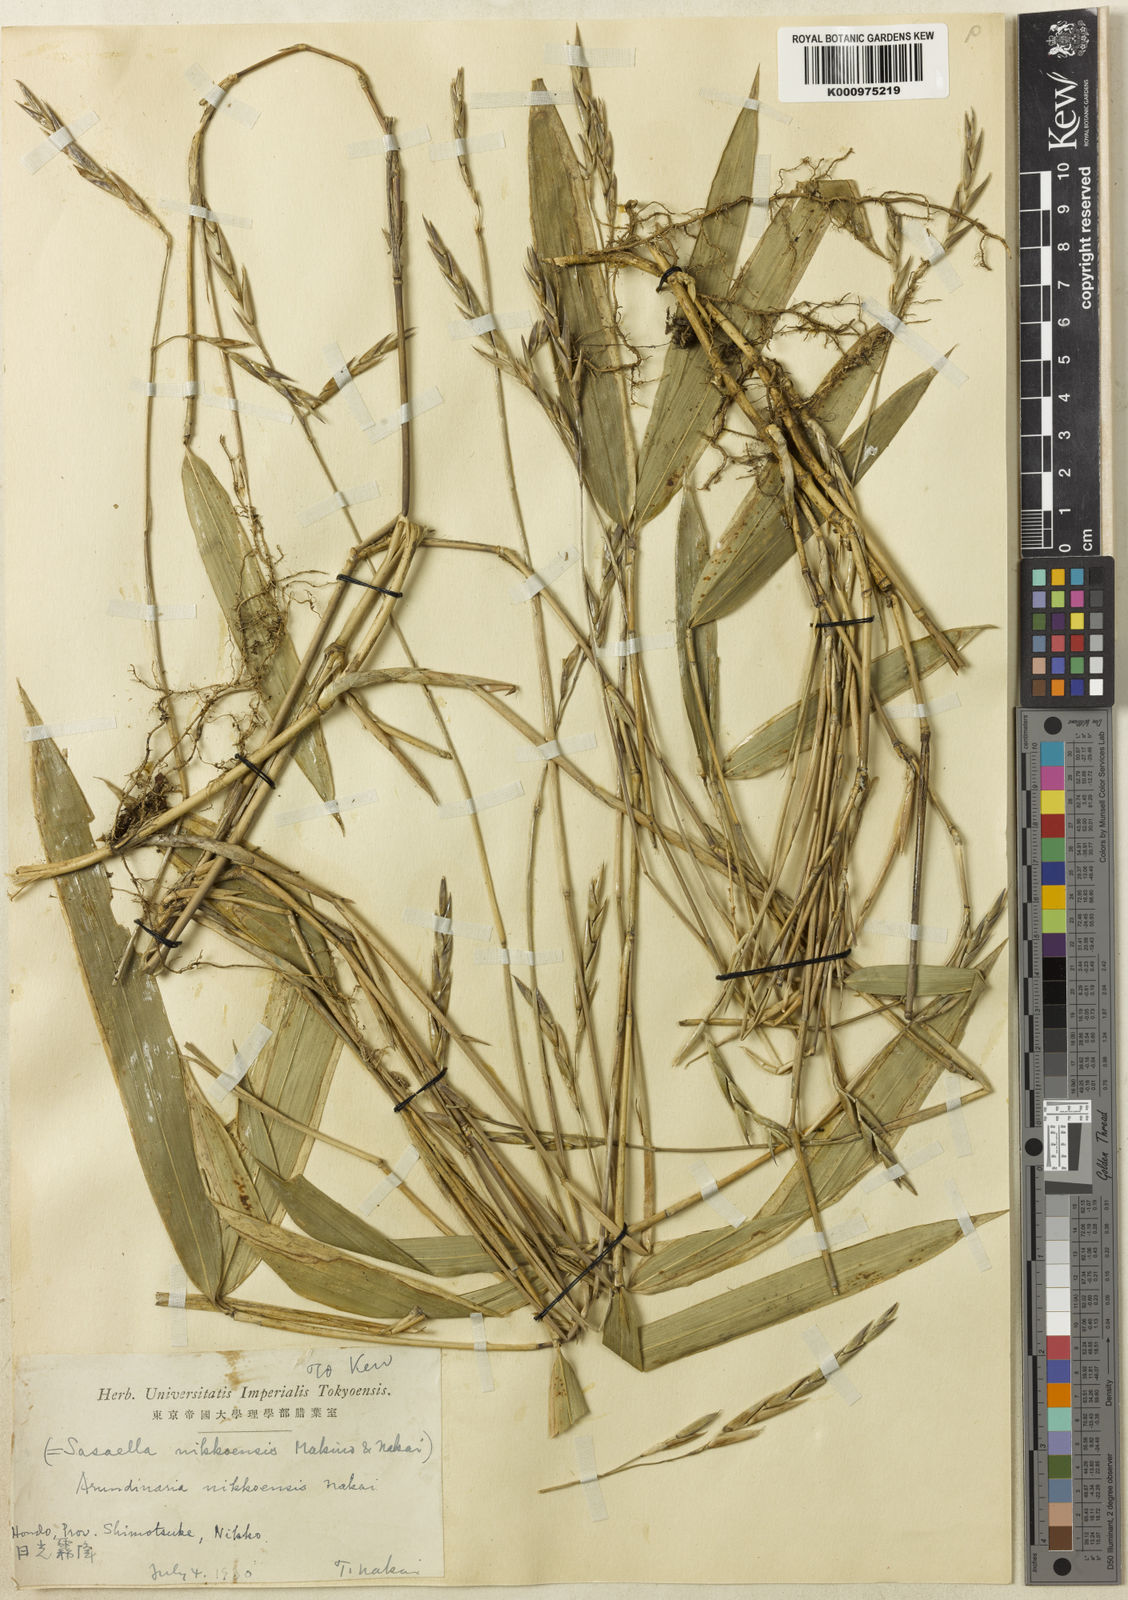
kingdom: Plantae
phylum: Tracheophyta
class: Liliopsida
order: Poales
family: Poaceae
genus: Sasaella
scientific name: Sasaella ramosa
